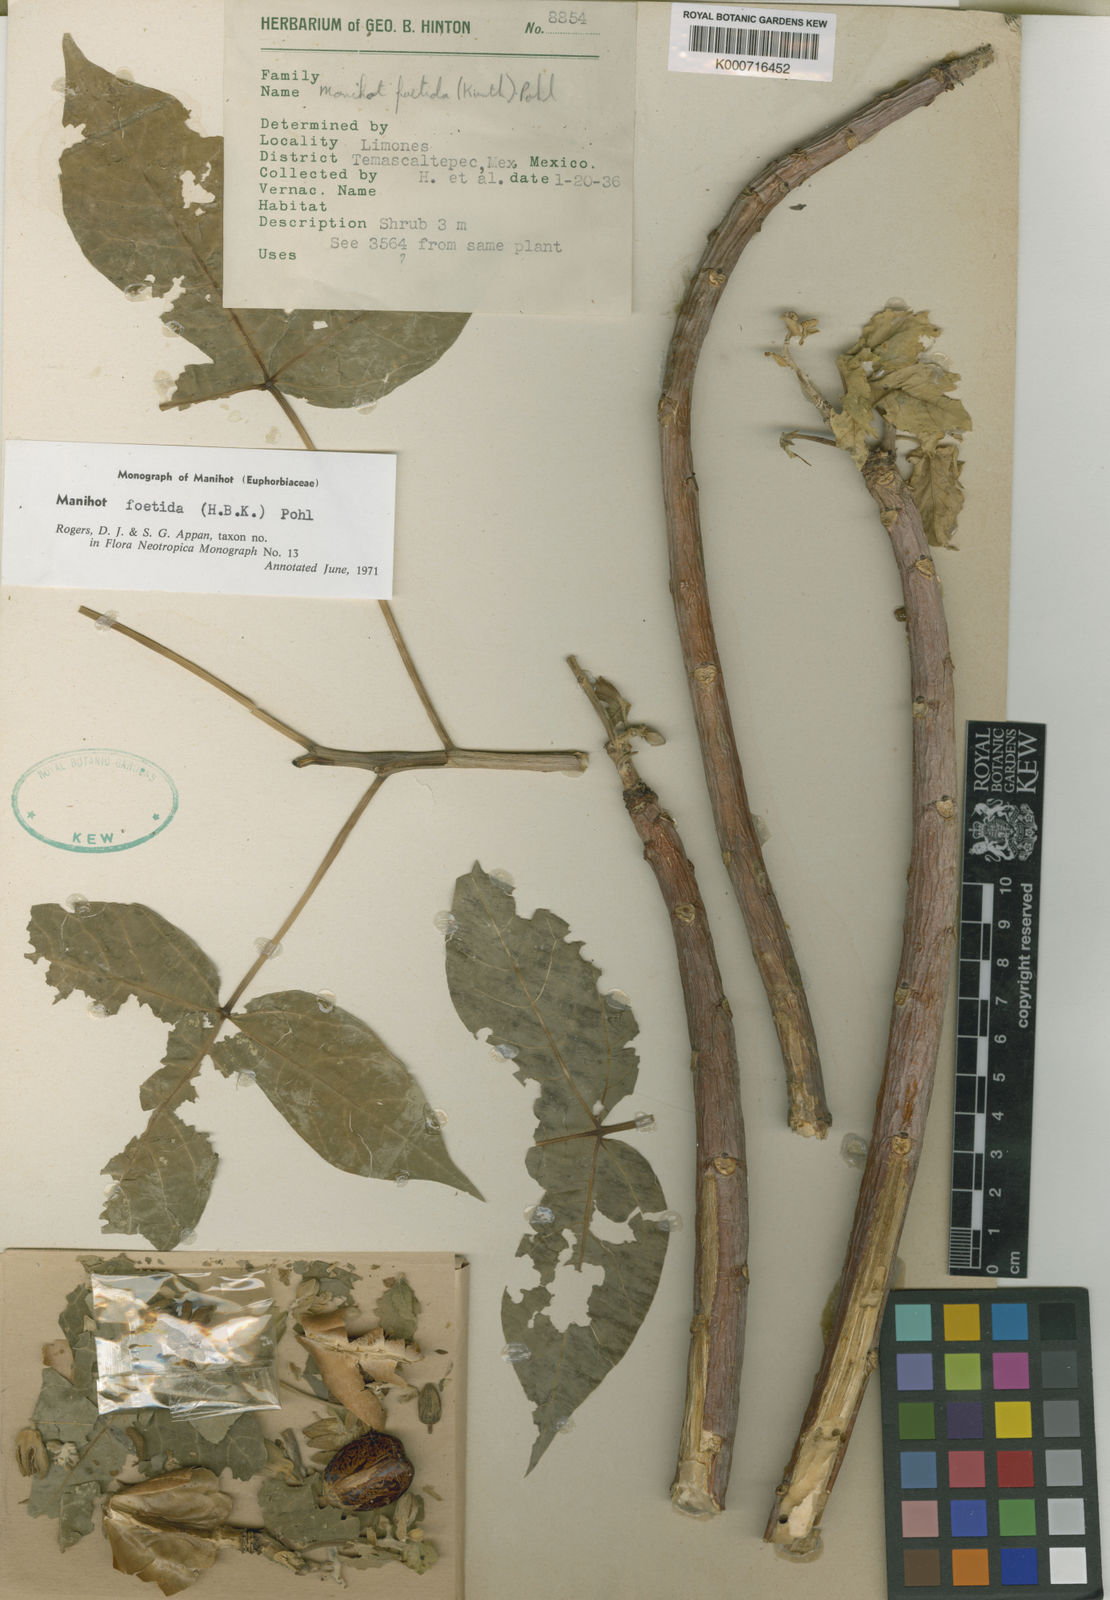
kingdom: Plantae
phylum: Tracheophyta
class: Magnoliopsida
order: Malpighiales
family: Euphorbiaceae
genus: Manihot
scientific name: Manihot foetida
